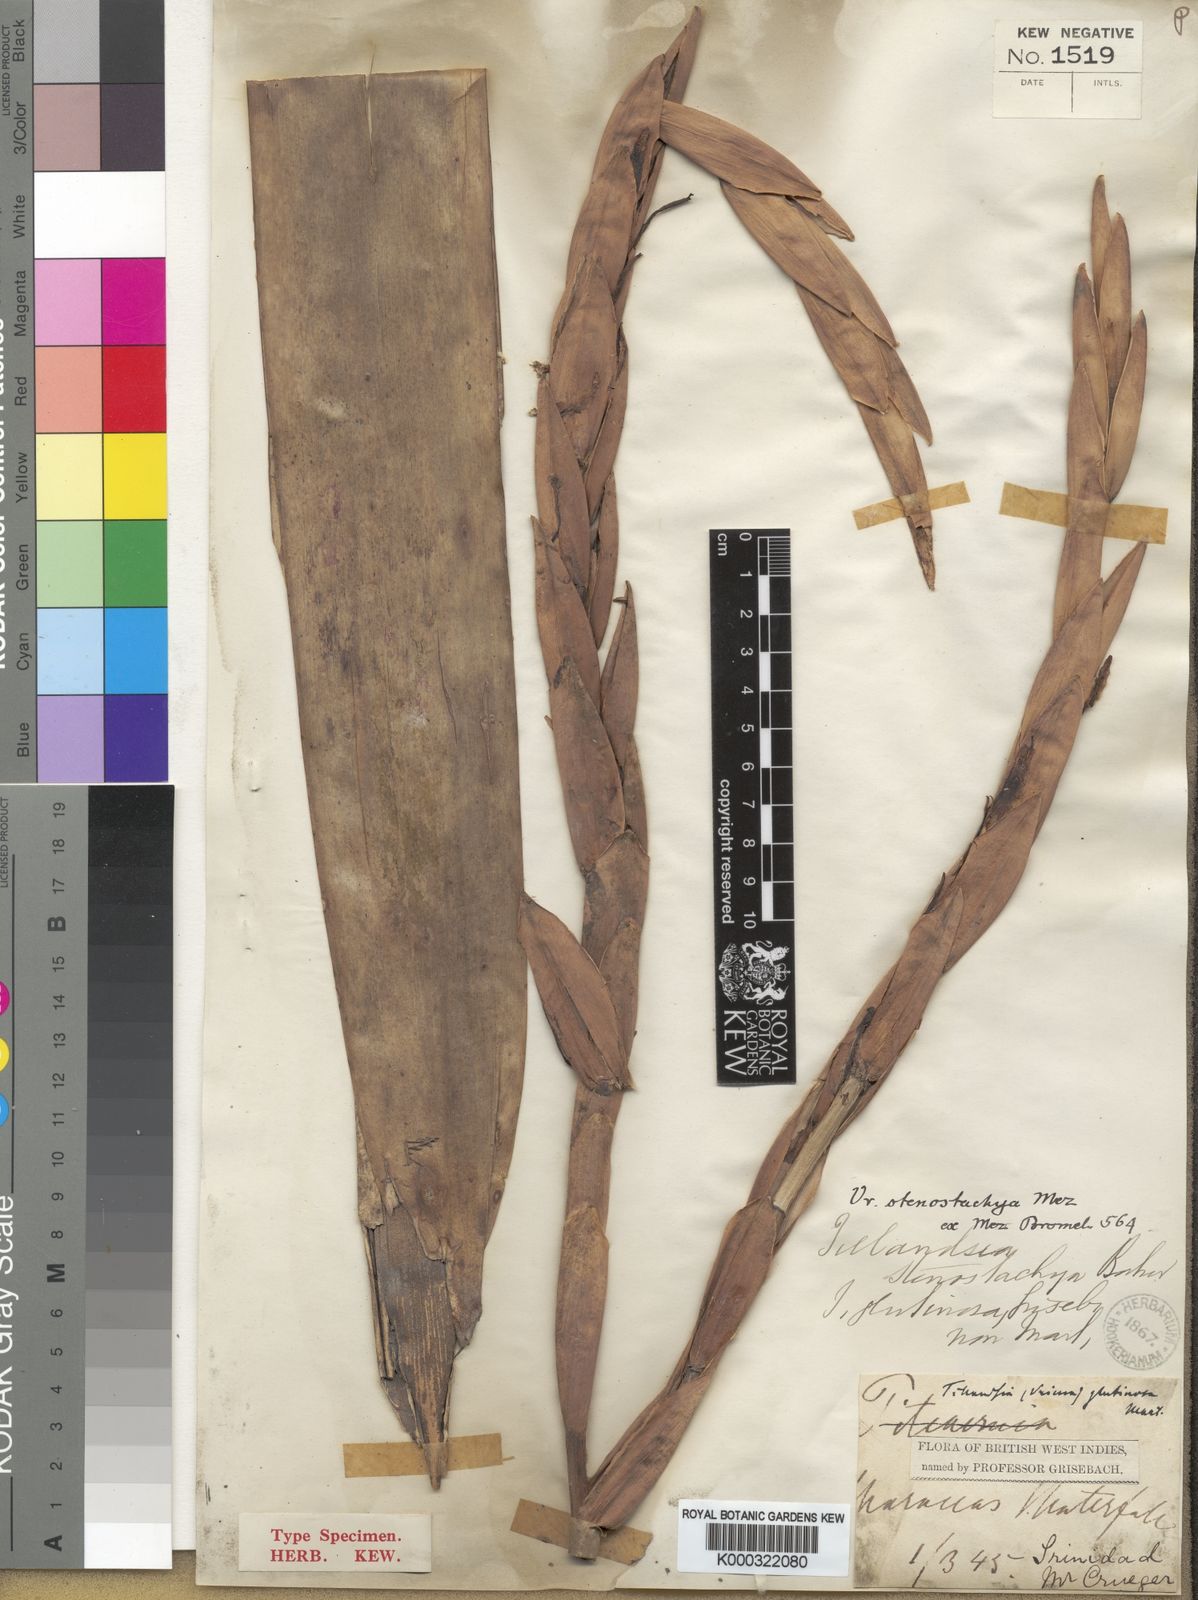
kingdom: Plantae
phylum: Tracheophyta
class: Liliopsida
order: Poales
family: Bromeliaceae
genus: Lutheria
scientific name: Lutheria glutinosa
